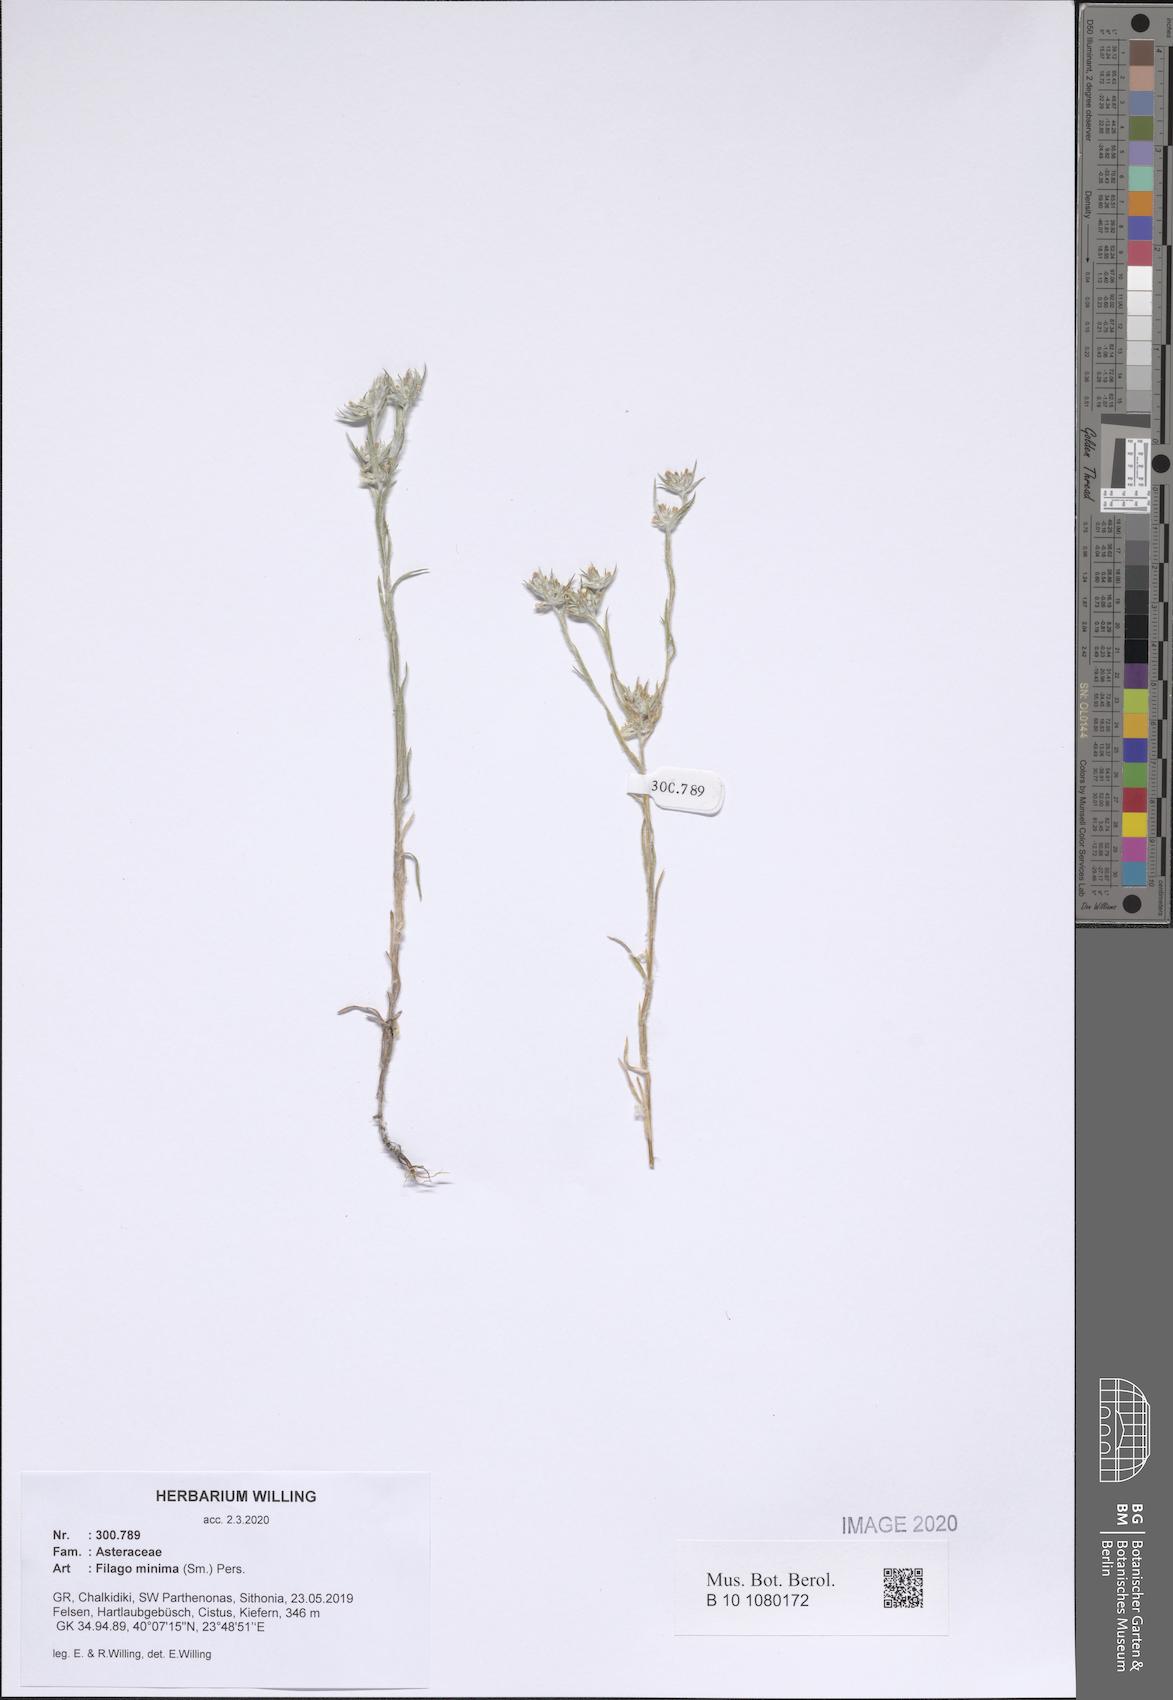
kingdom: Plantae
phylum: Tracheophyta
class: Magnoliopsida
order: Asterales
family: Asteraceae
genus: Logfia
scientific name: Logfia minima
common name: Little cottonrose
